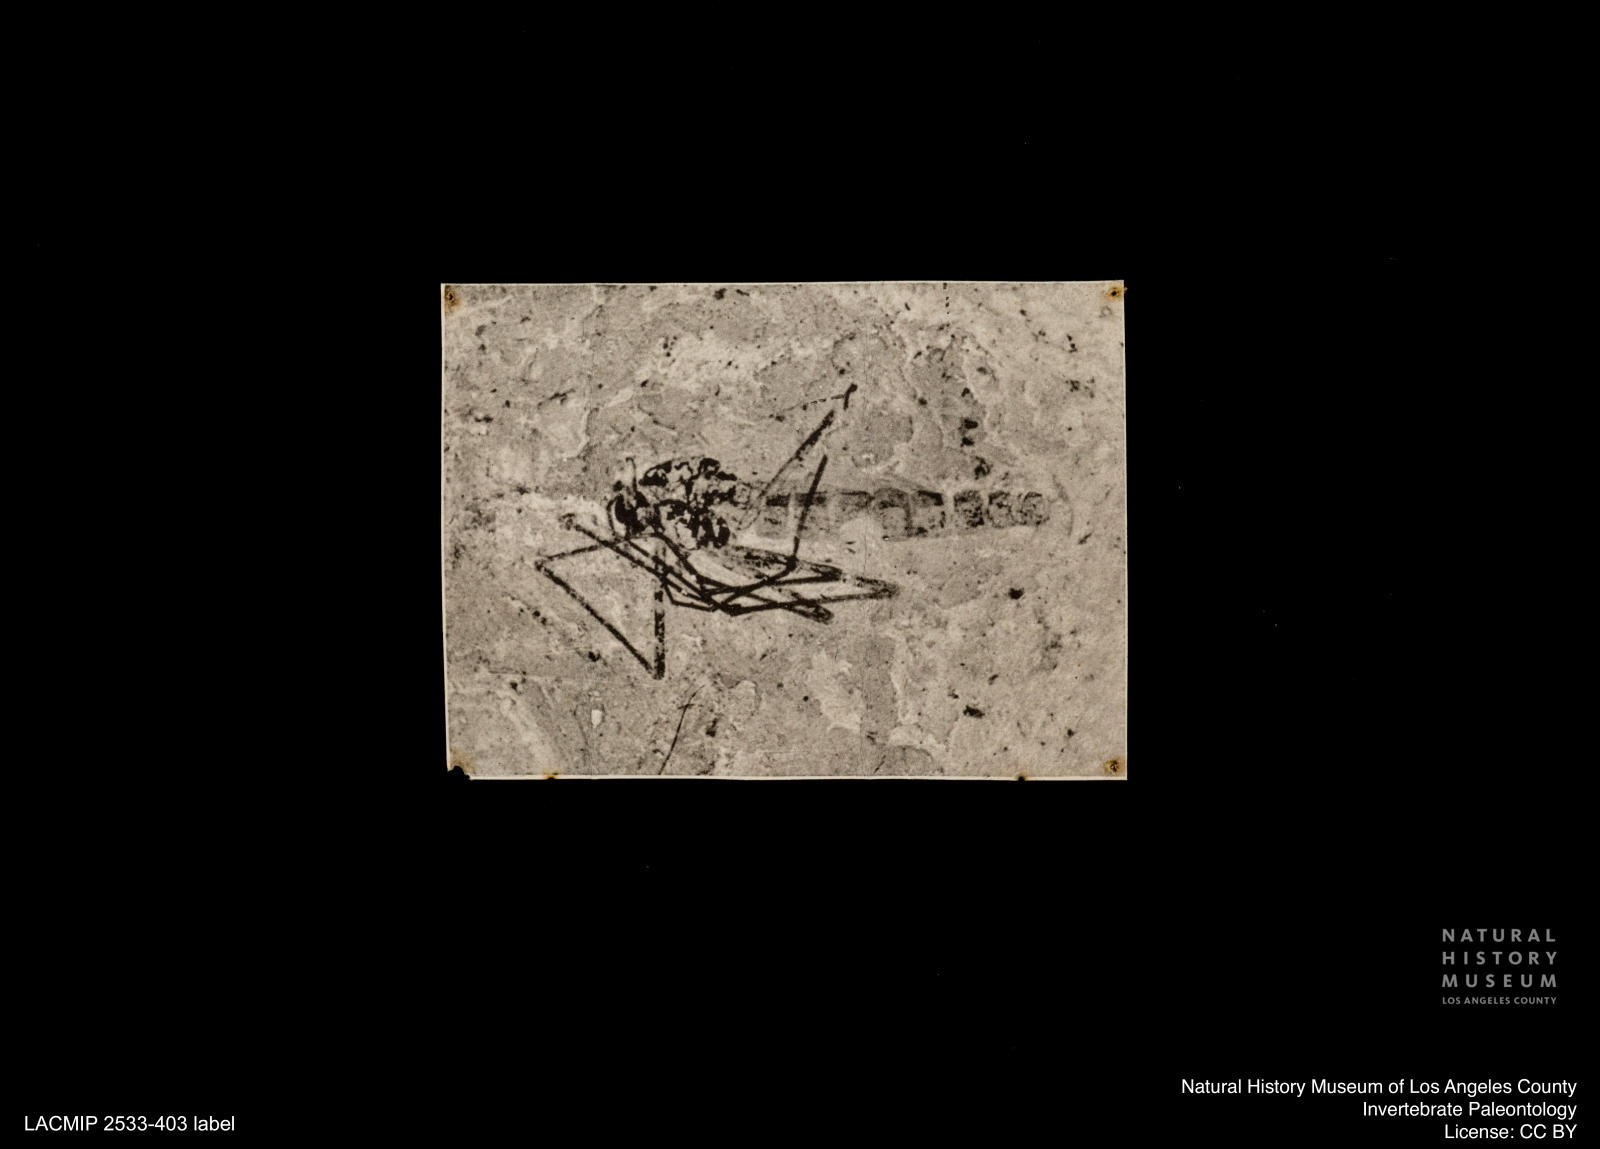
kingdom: Animalia
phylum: Arthropoda
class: Insecta
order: Diptera
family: Chironomidae
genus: Orthocladius
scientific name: Orthocladius
